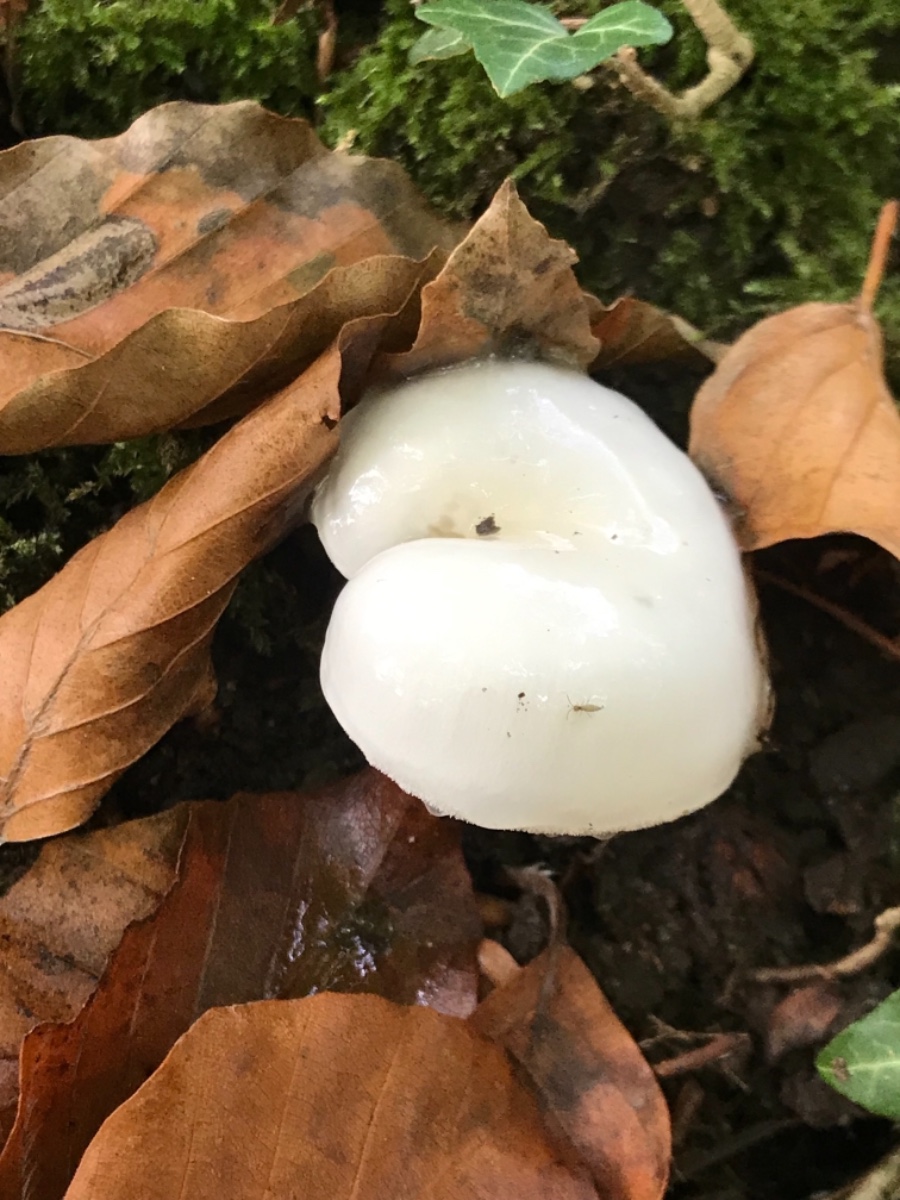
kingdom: Fungi
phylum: Basidiomycota
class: Agaricomycetes
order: Agaricales
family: Hygrophoraceae
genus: Hygrophorus
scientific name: Hygrophorus
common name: sneglehat
